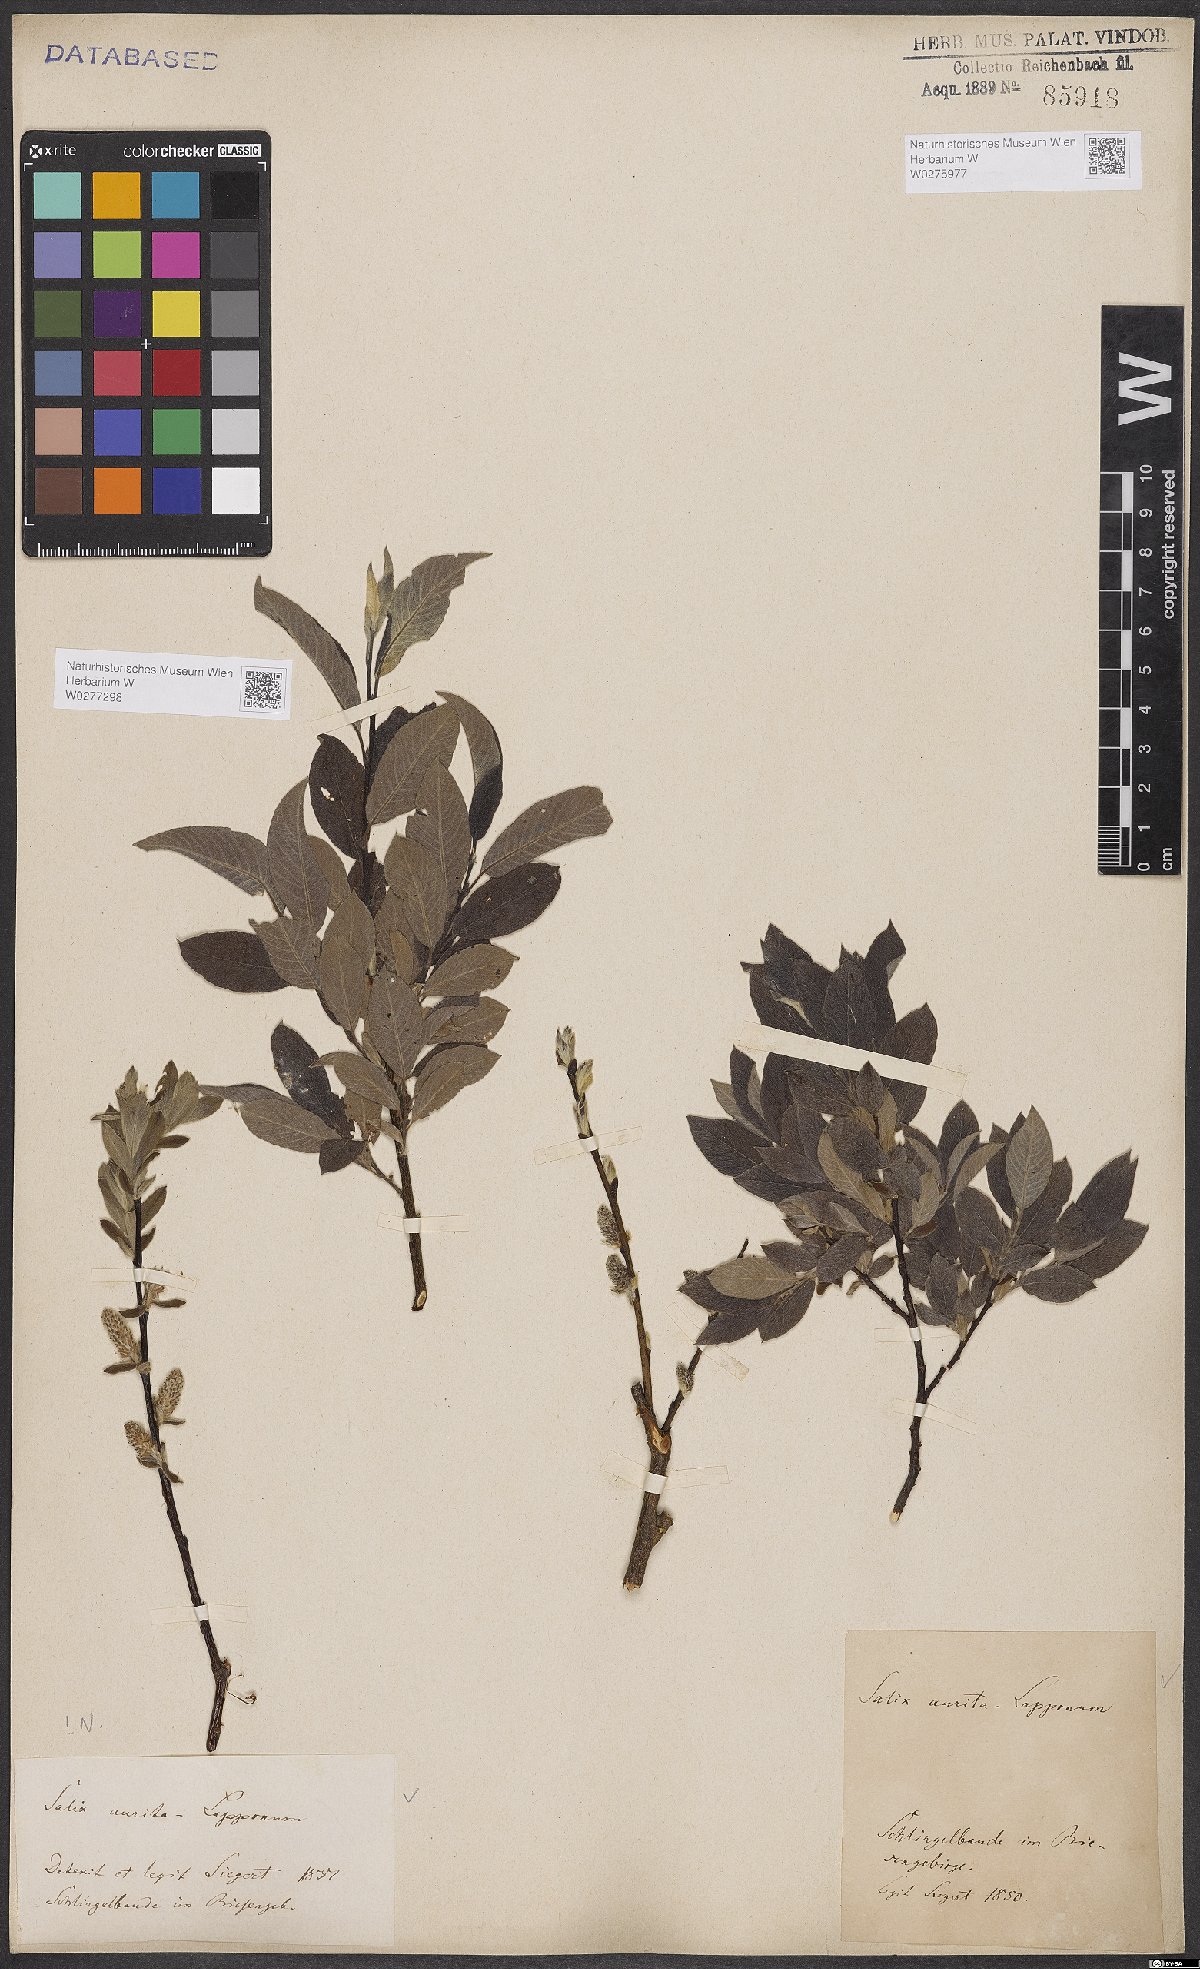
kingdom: Plantae
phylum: Tracheophyta
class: Magnoliopsida
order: Malpighiales
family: Salicaceae
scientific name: Salicaceae
